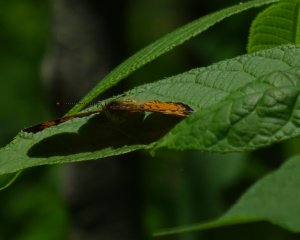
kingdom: Animalia
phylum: Arthropoda
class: Insecta
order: Lepidoptera
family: Nymphalidae
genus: Phyciodes
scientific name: Phyciodes tharos
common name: Northern Crescent
